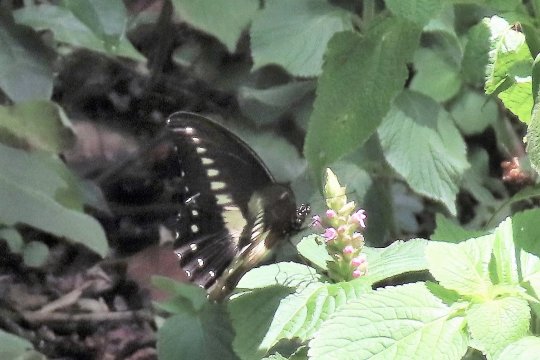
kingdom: Animalia
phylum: Arthropoda
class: Insecta
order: Lepidoptera
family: Papilionidae
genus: Papilio
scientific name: Papilio jacksoni
